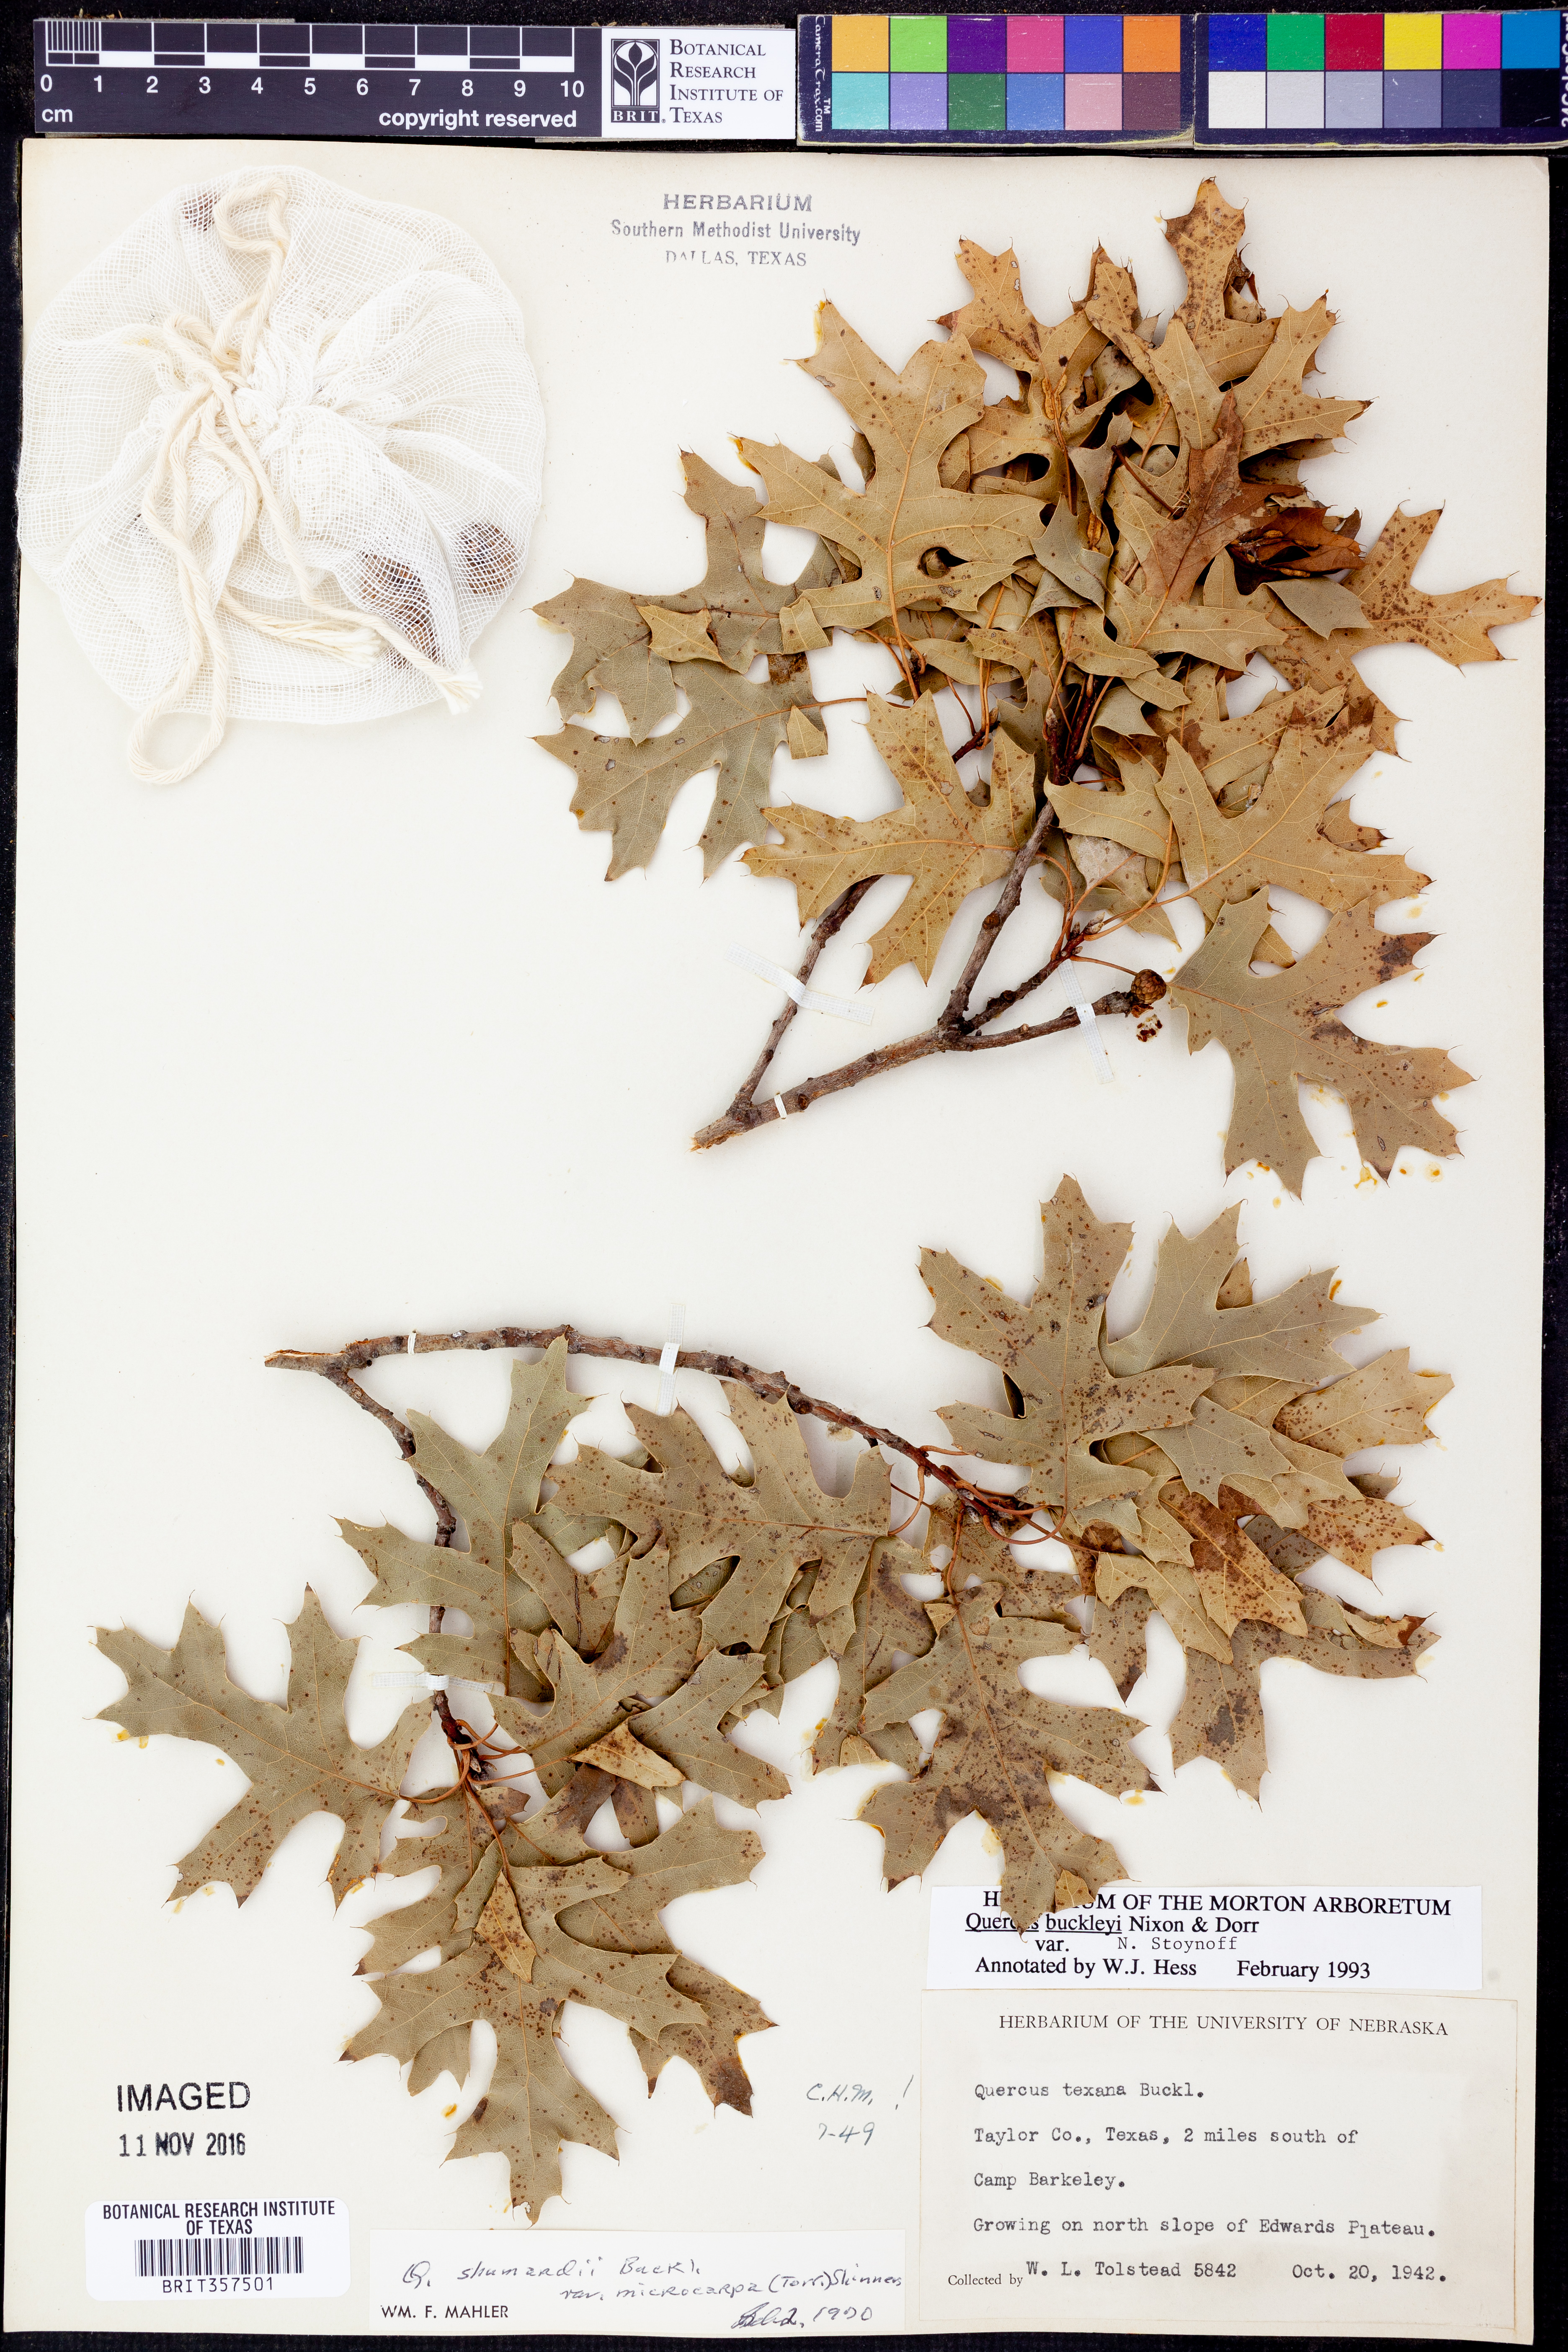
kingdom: Plantae
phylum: Tracheophyta
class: Magnoliopsida
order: Fagales
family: Fagaceae
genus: Quercus
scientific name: Quercus buckleyi
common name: Buckley oak
